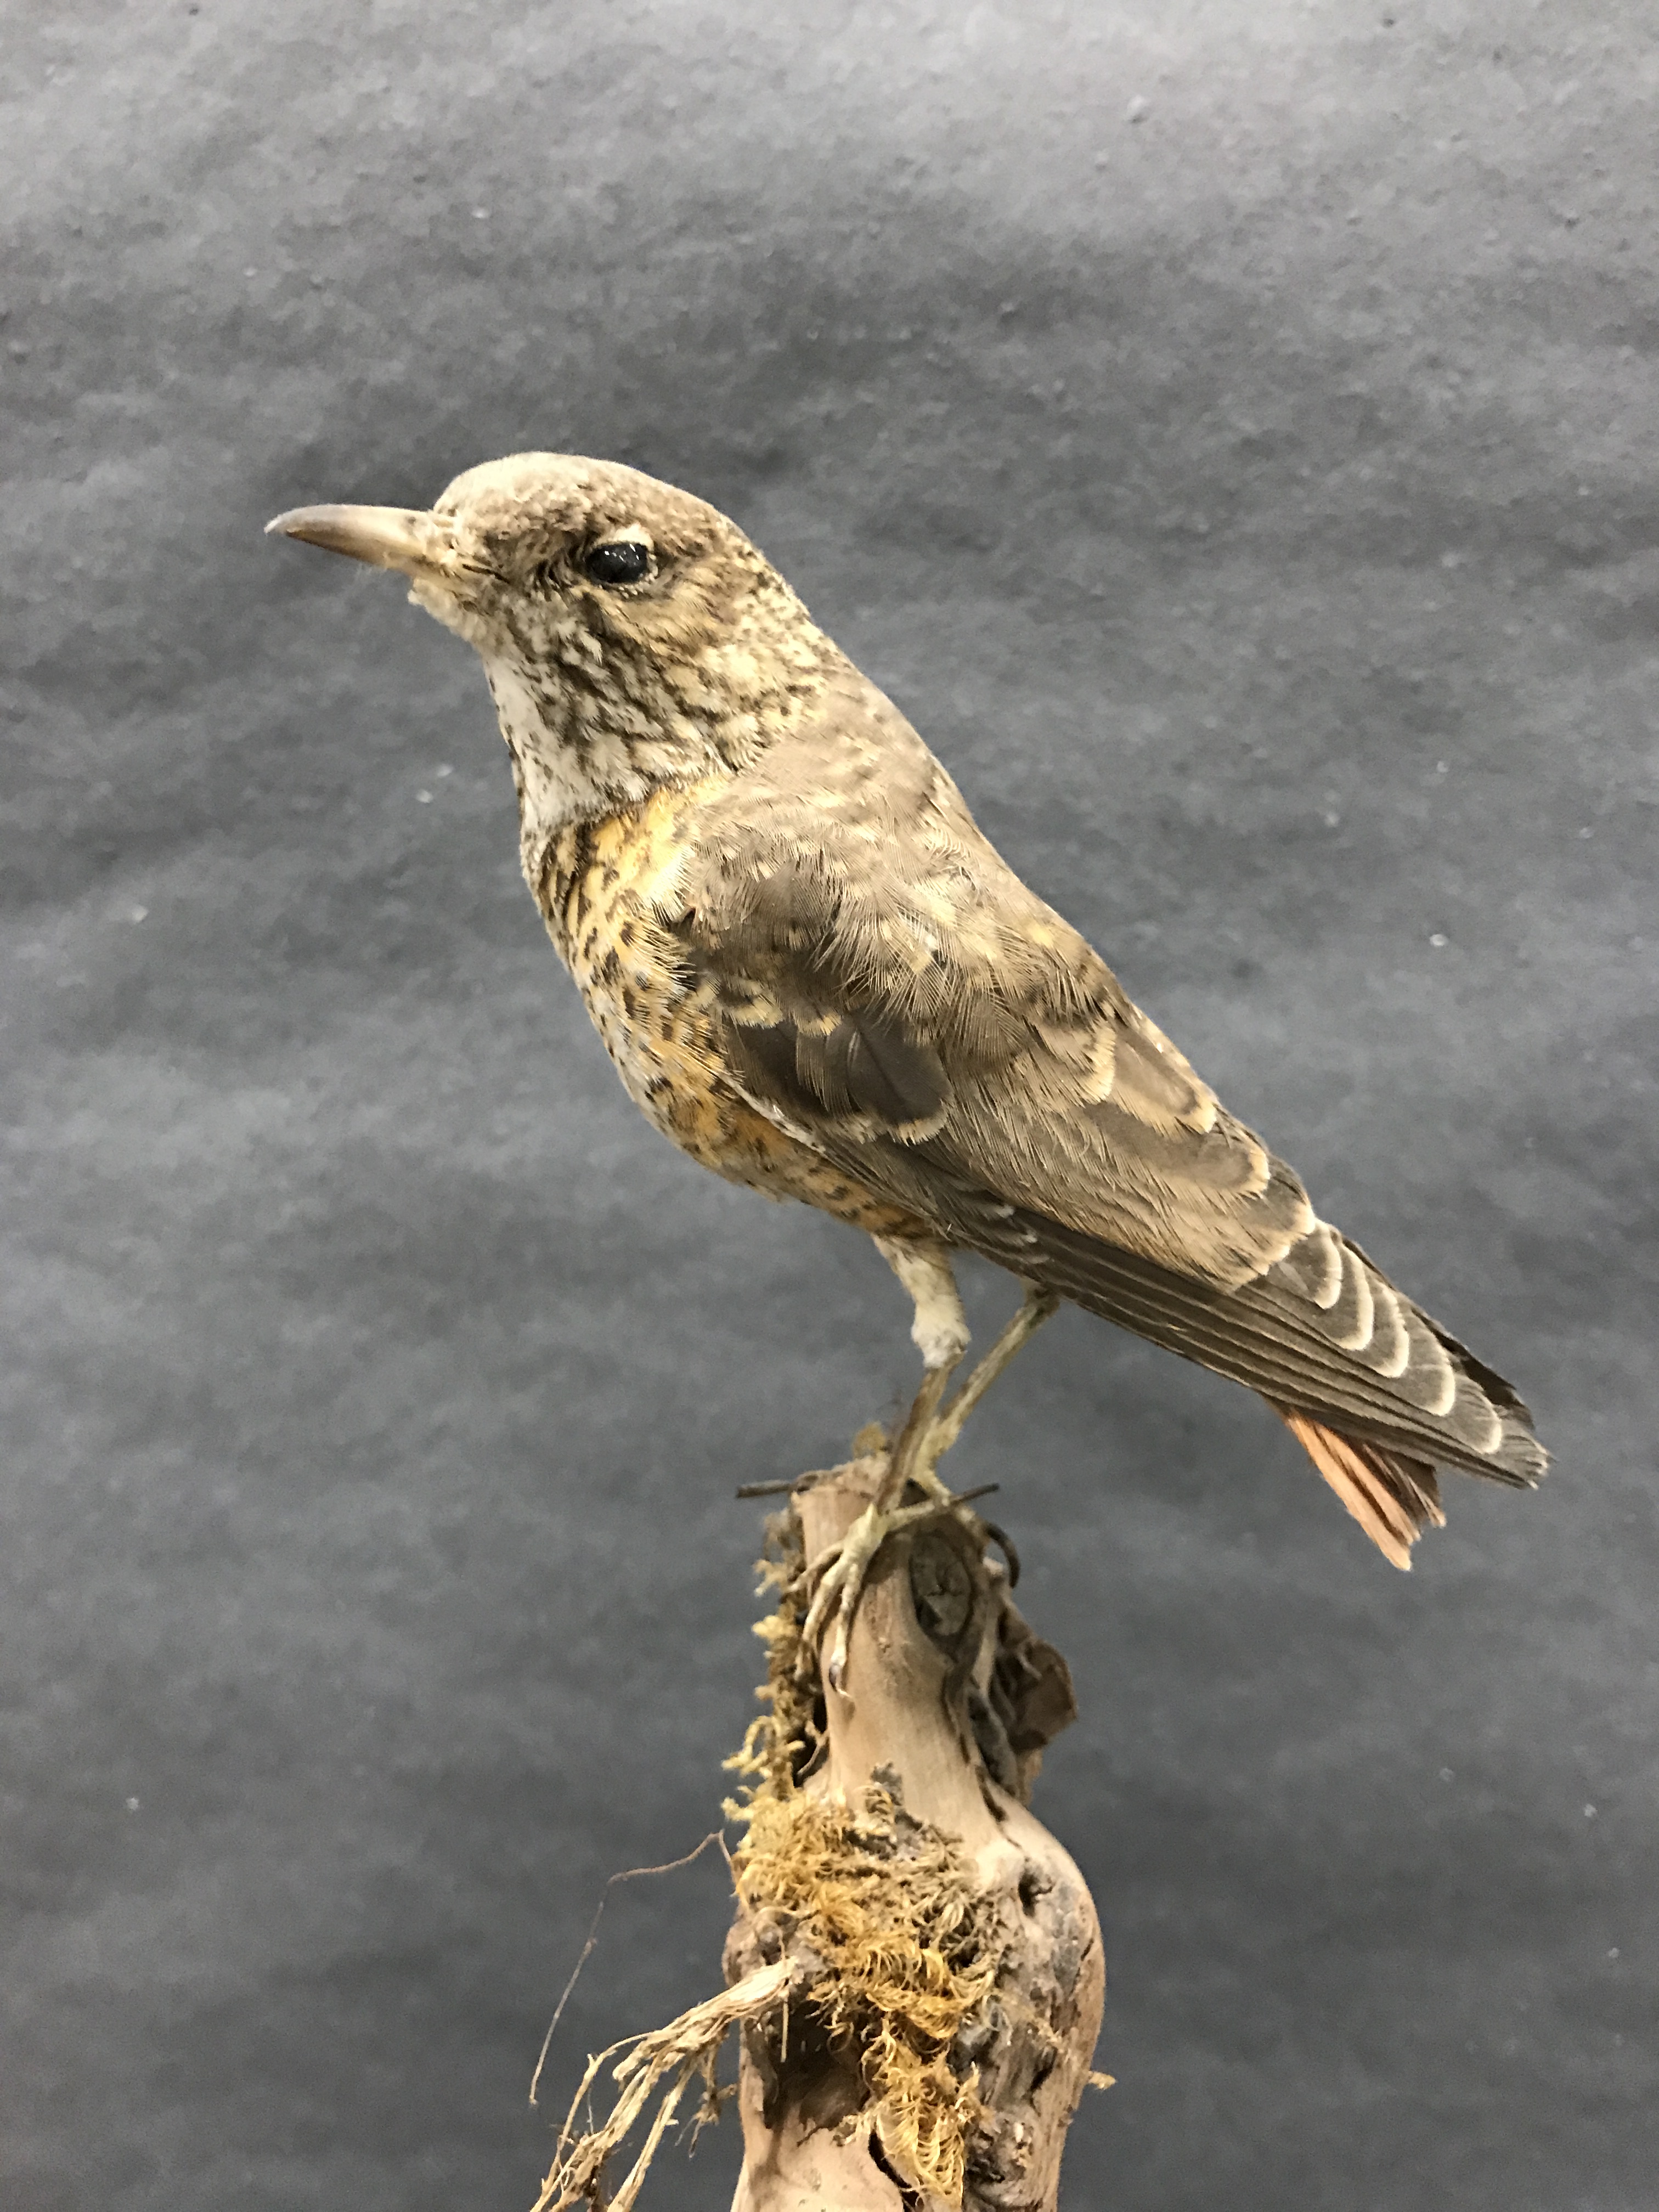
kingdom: Animalia
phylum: Chordata
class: Aves
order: Passeriformes
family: Muscicapidae
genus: Monticola
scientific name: Monticola saxatilis
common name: Rufous-tailed rock thrush
